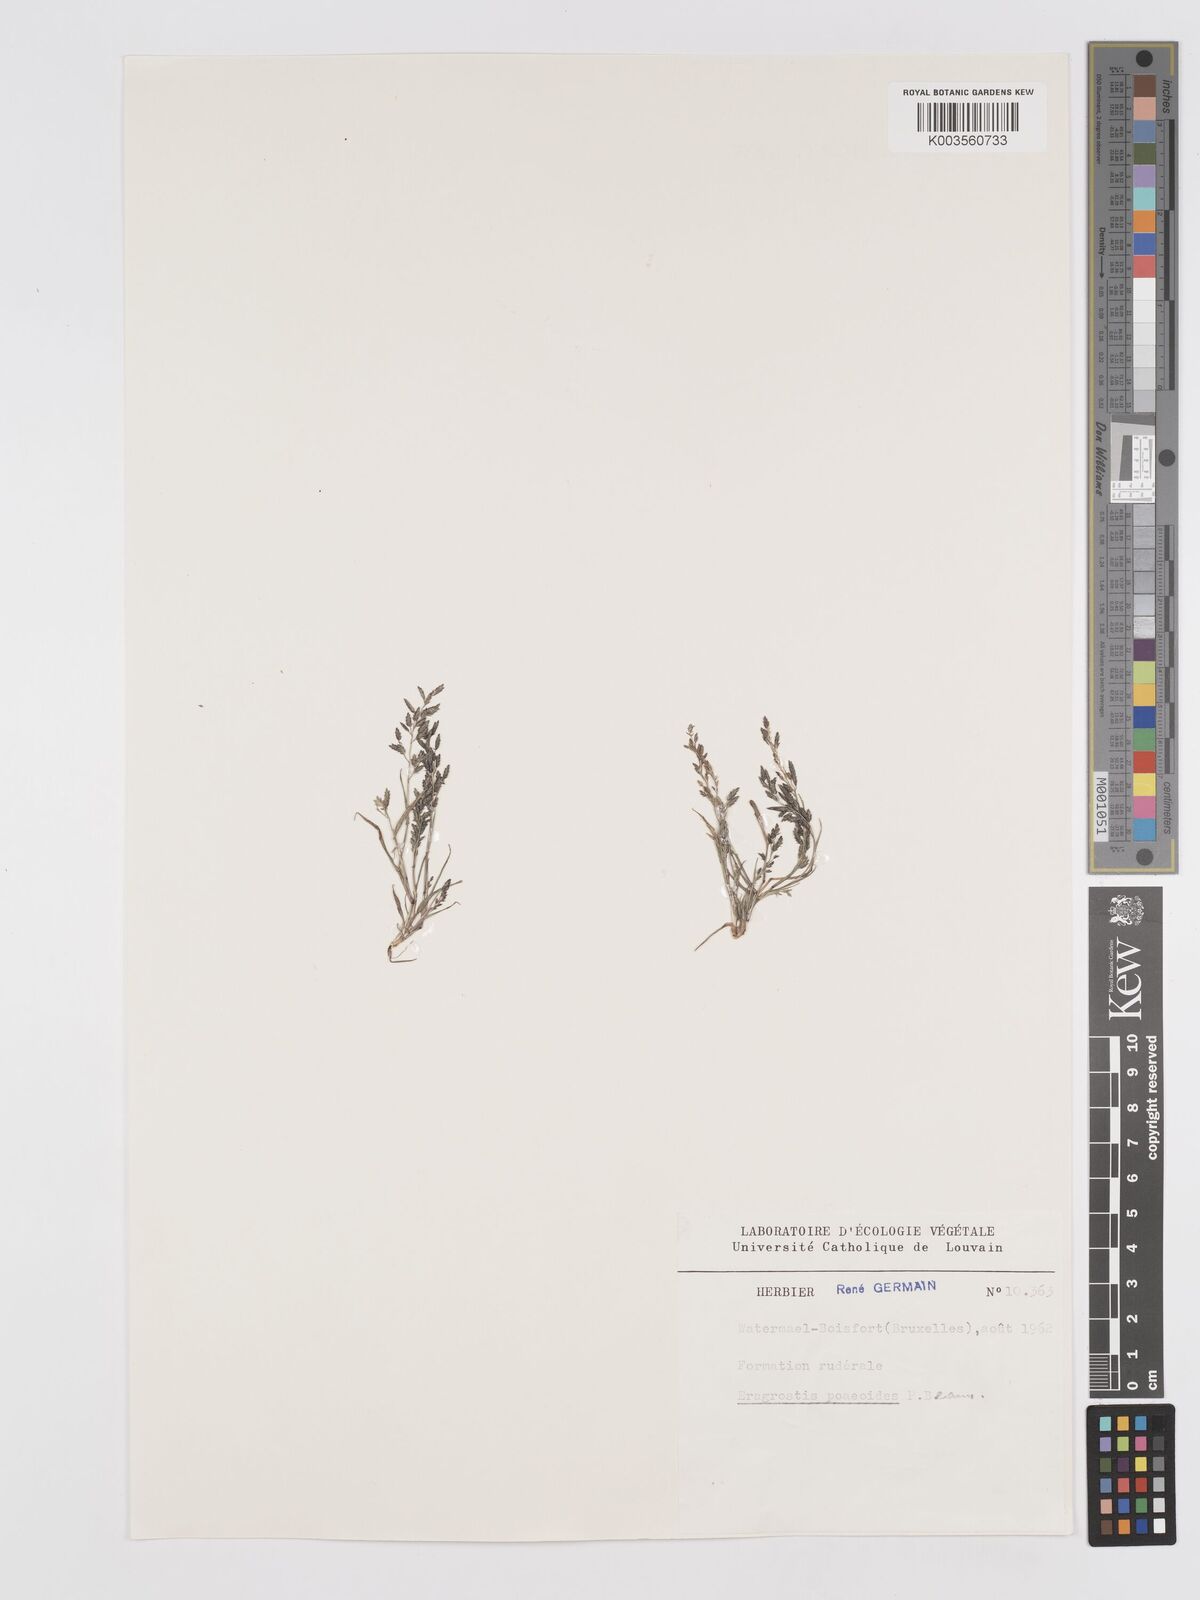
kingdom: Plantae
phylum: Tracheophyta
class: Liliopsida
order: Poales
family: Poaceae
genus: Eragrostis
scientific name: Eragrostis minor
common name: Small love-grass
